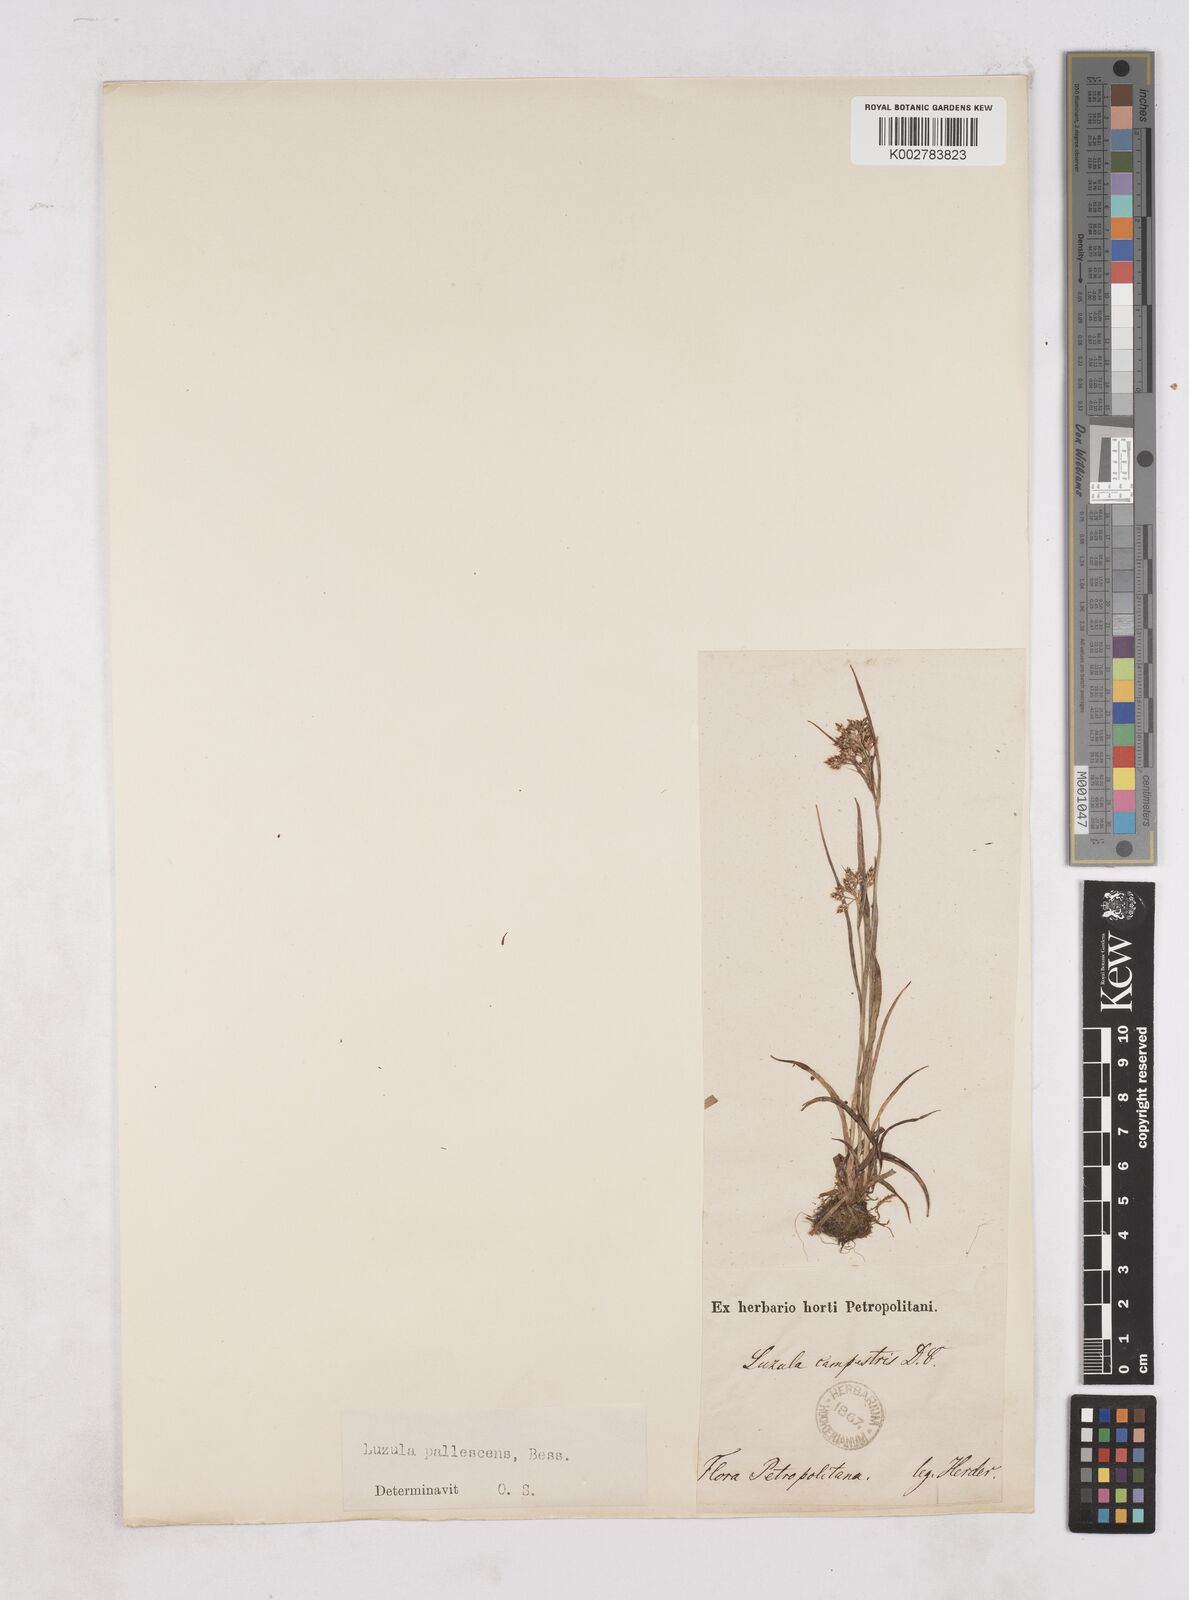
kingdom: Plantae
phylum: Tracheophyta
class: Liliopsida
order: Poales
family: Juncaceae
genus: Luzula
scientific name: Luzula pallescens
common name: Fen wood-rush
